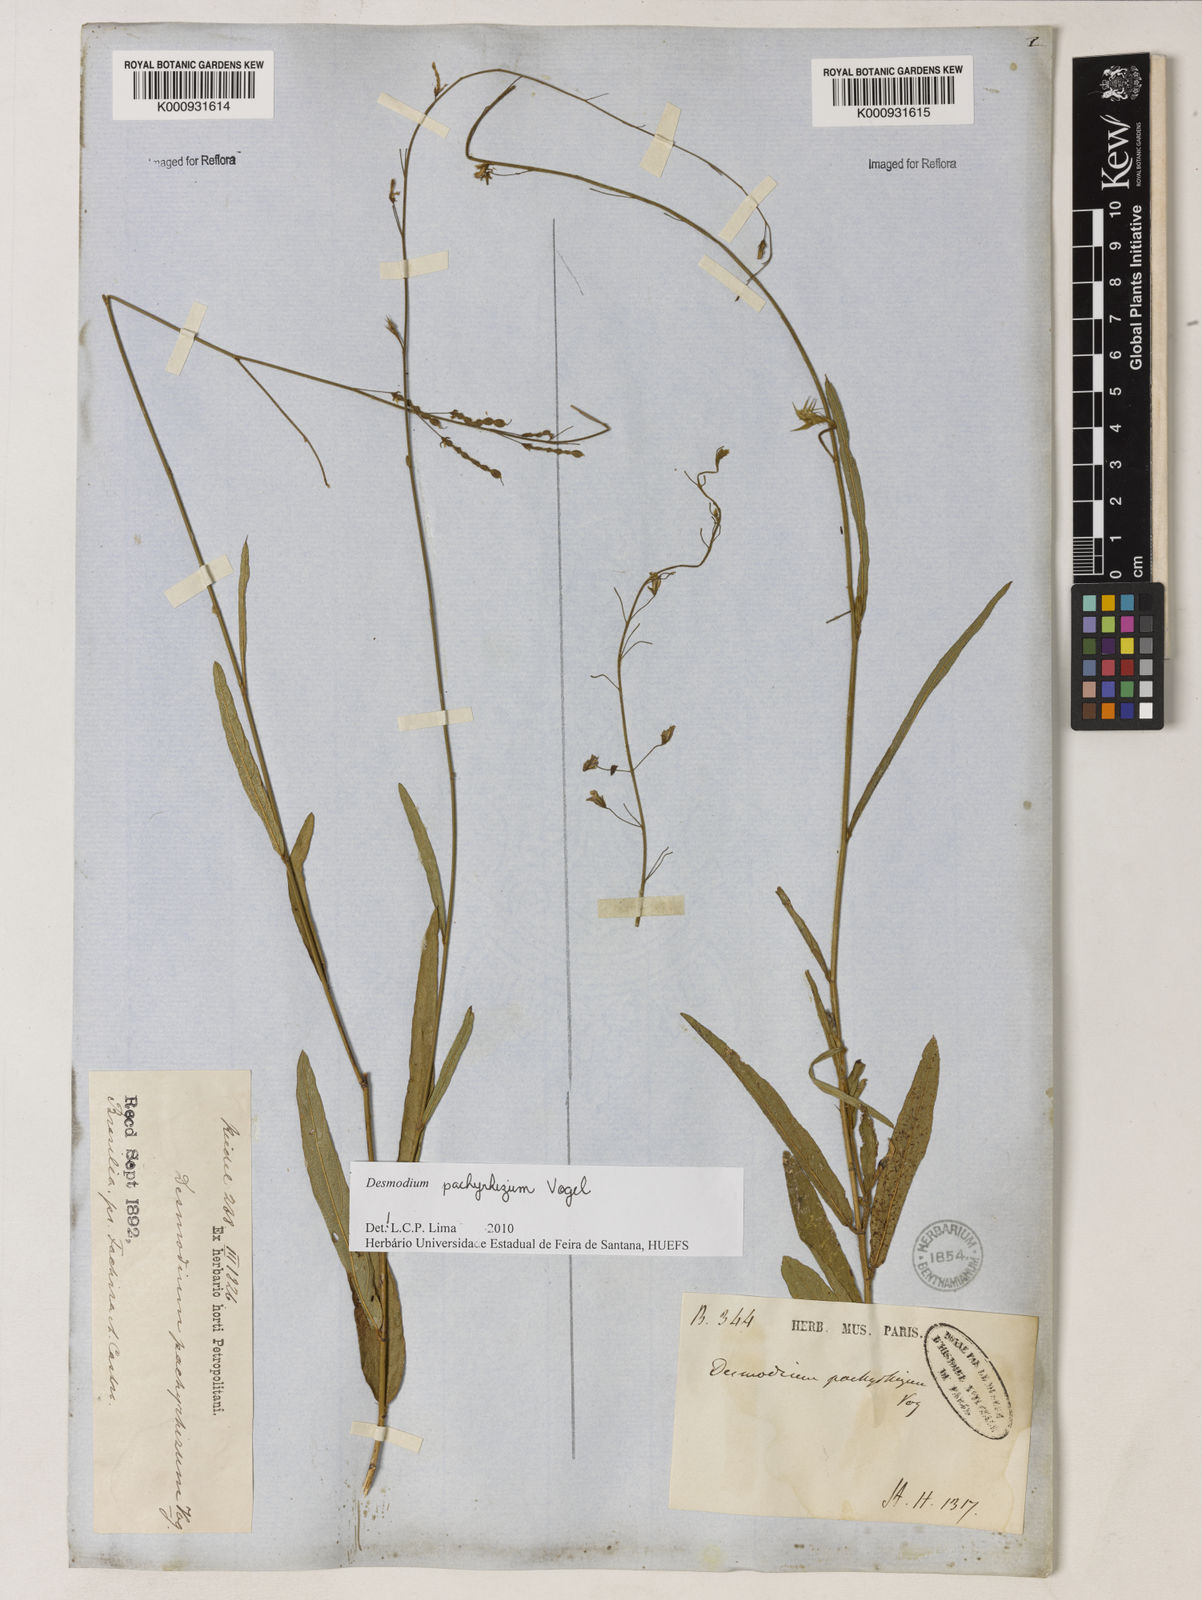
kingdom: Plantae
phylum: Tracheophyta
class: Magnoliopsida
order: Fabales
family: Fabaceae
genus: Desmodium
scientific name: Desmodium pachyrhizum
